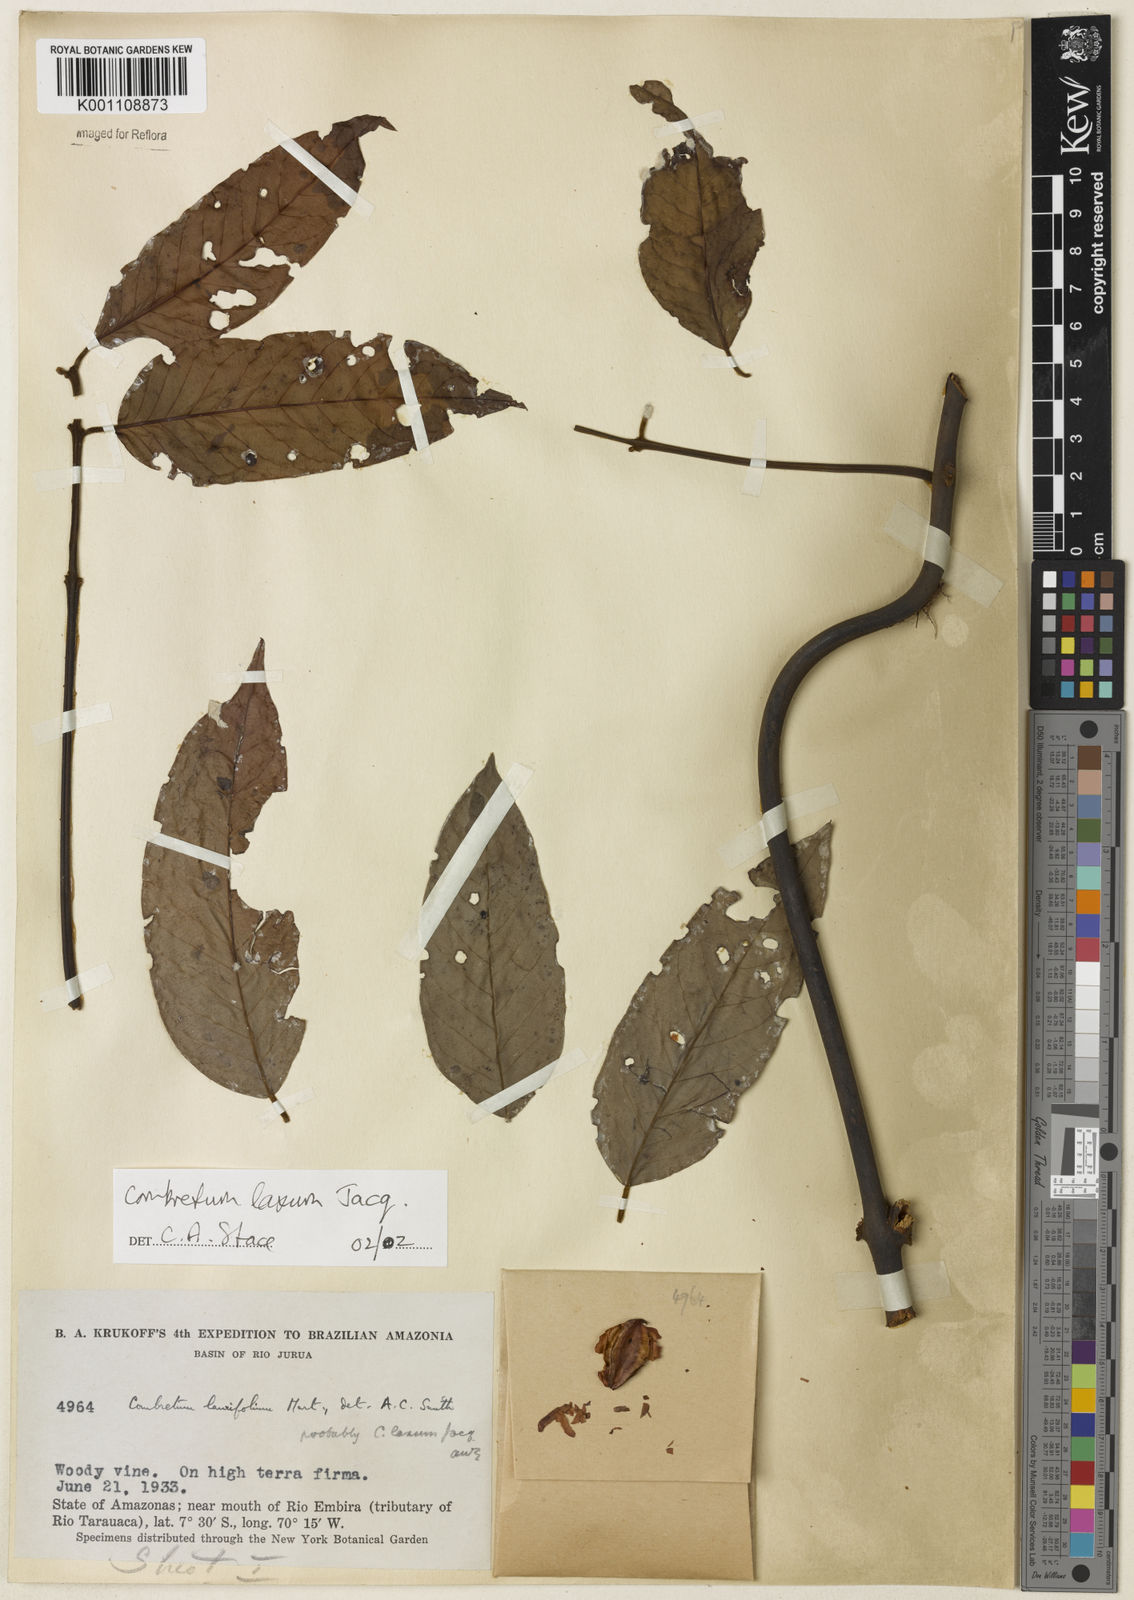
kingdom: Plantae
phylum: Tracheophyta
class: Magnoliopsida
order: Myrtales
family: Combretaceae
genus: Combretum
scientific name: Combretum laxum
